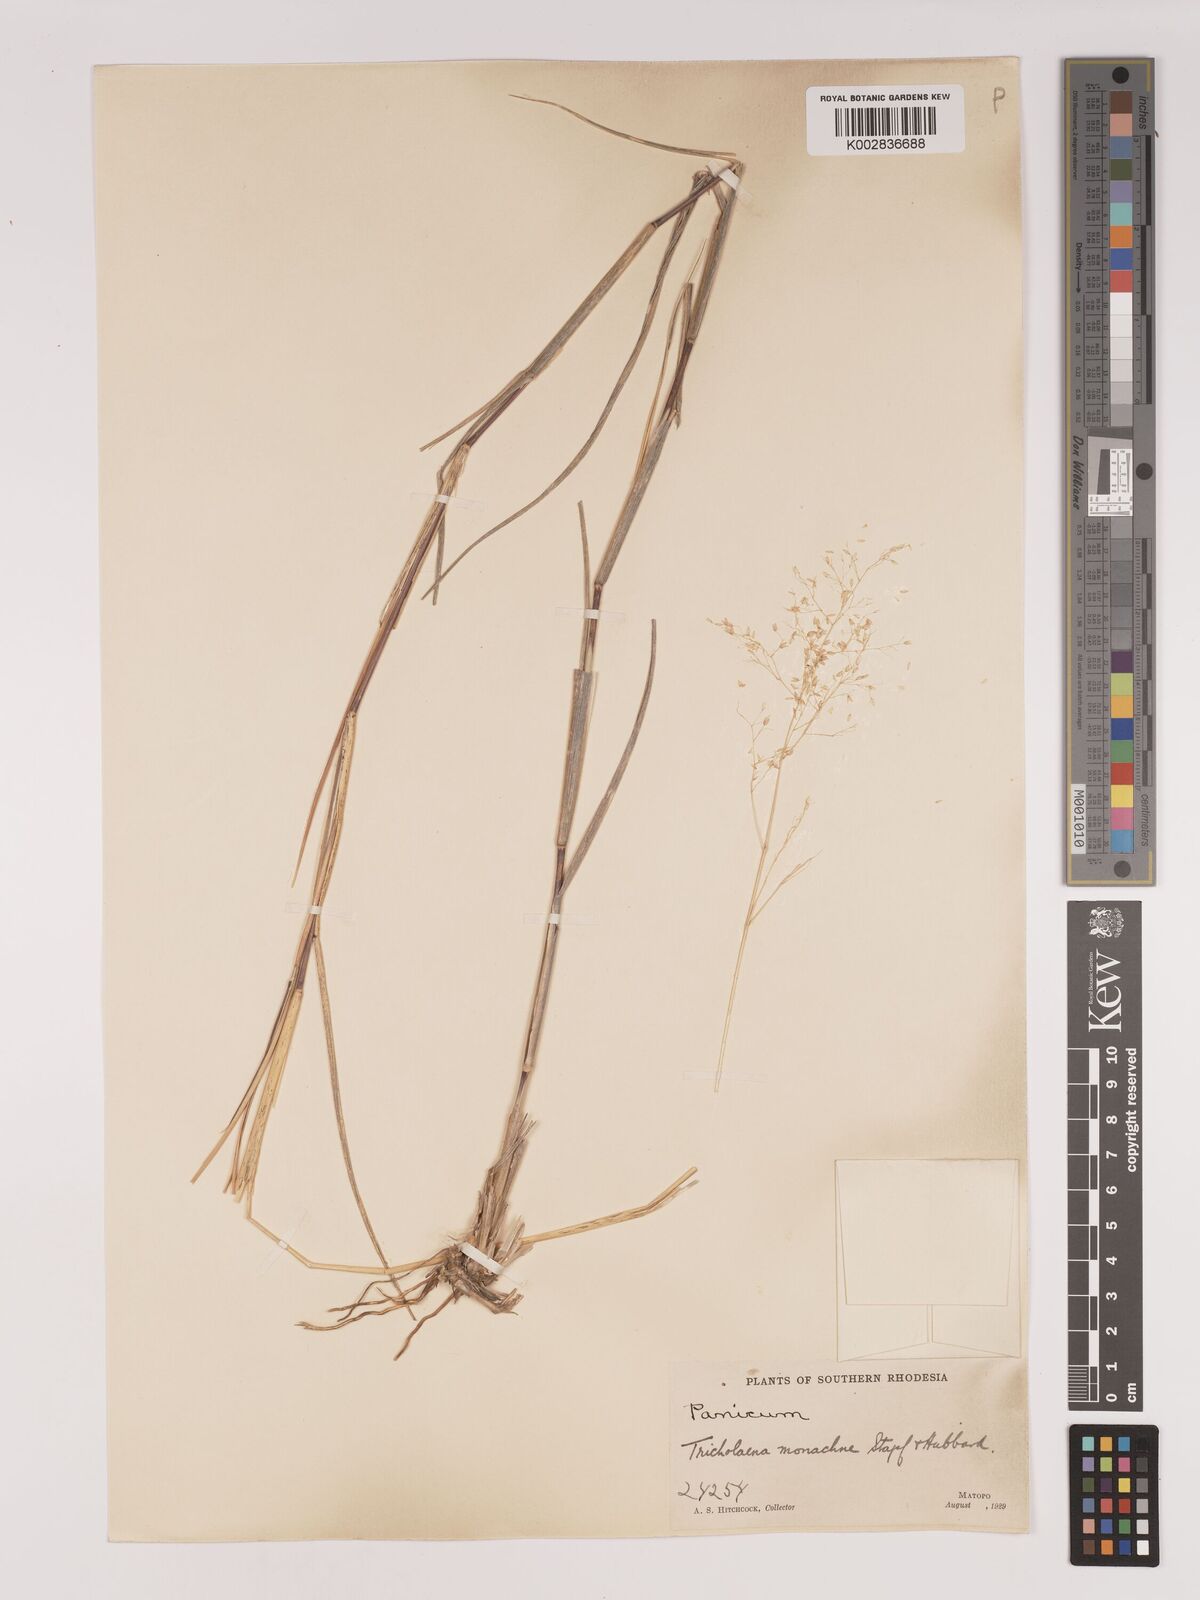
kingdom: Plantae
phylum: Tracheophyta
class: Liliopsida
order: Poales
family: Poaceae
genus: Tricholaena
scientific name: Tricholaena monachne
